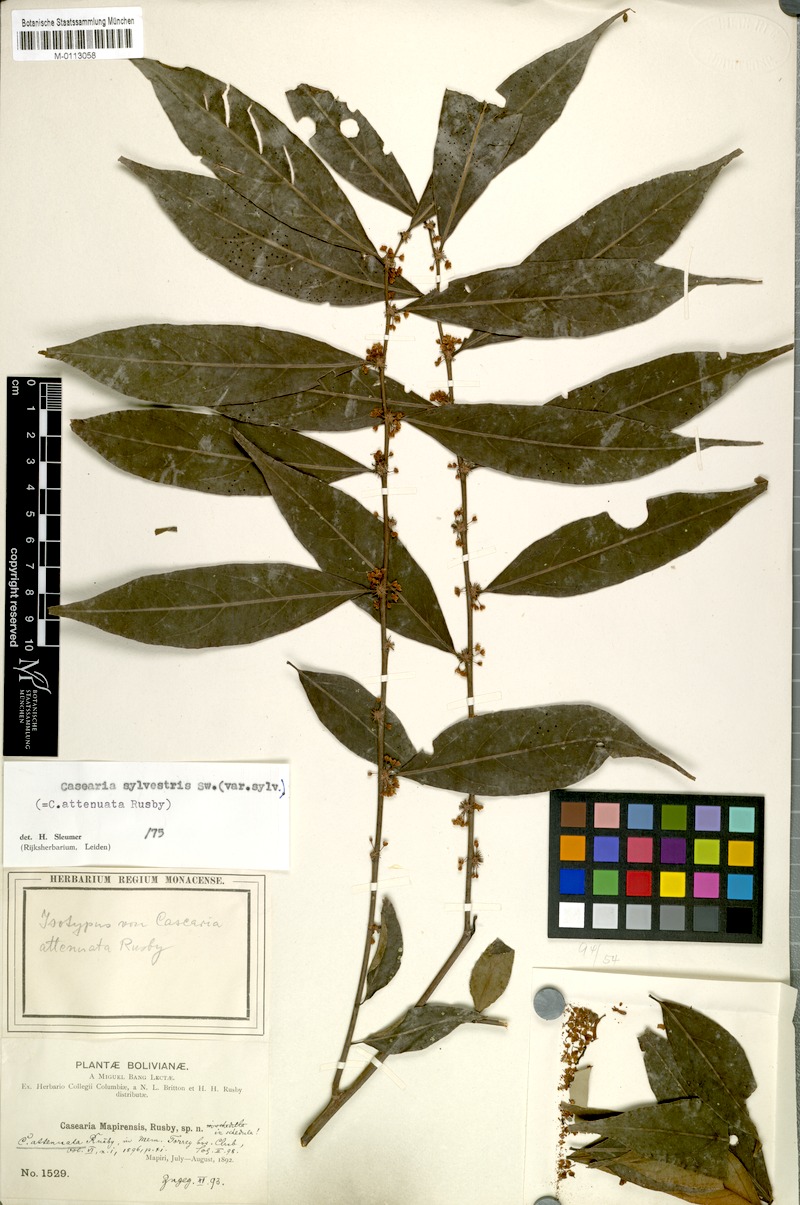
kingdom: Plantae
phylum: Tracheophyta
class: Magnoliopsida
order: Malpighiales
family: Salicaceae
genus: Casearia
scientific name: Casearia sylvestris
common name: Wild sage
